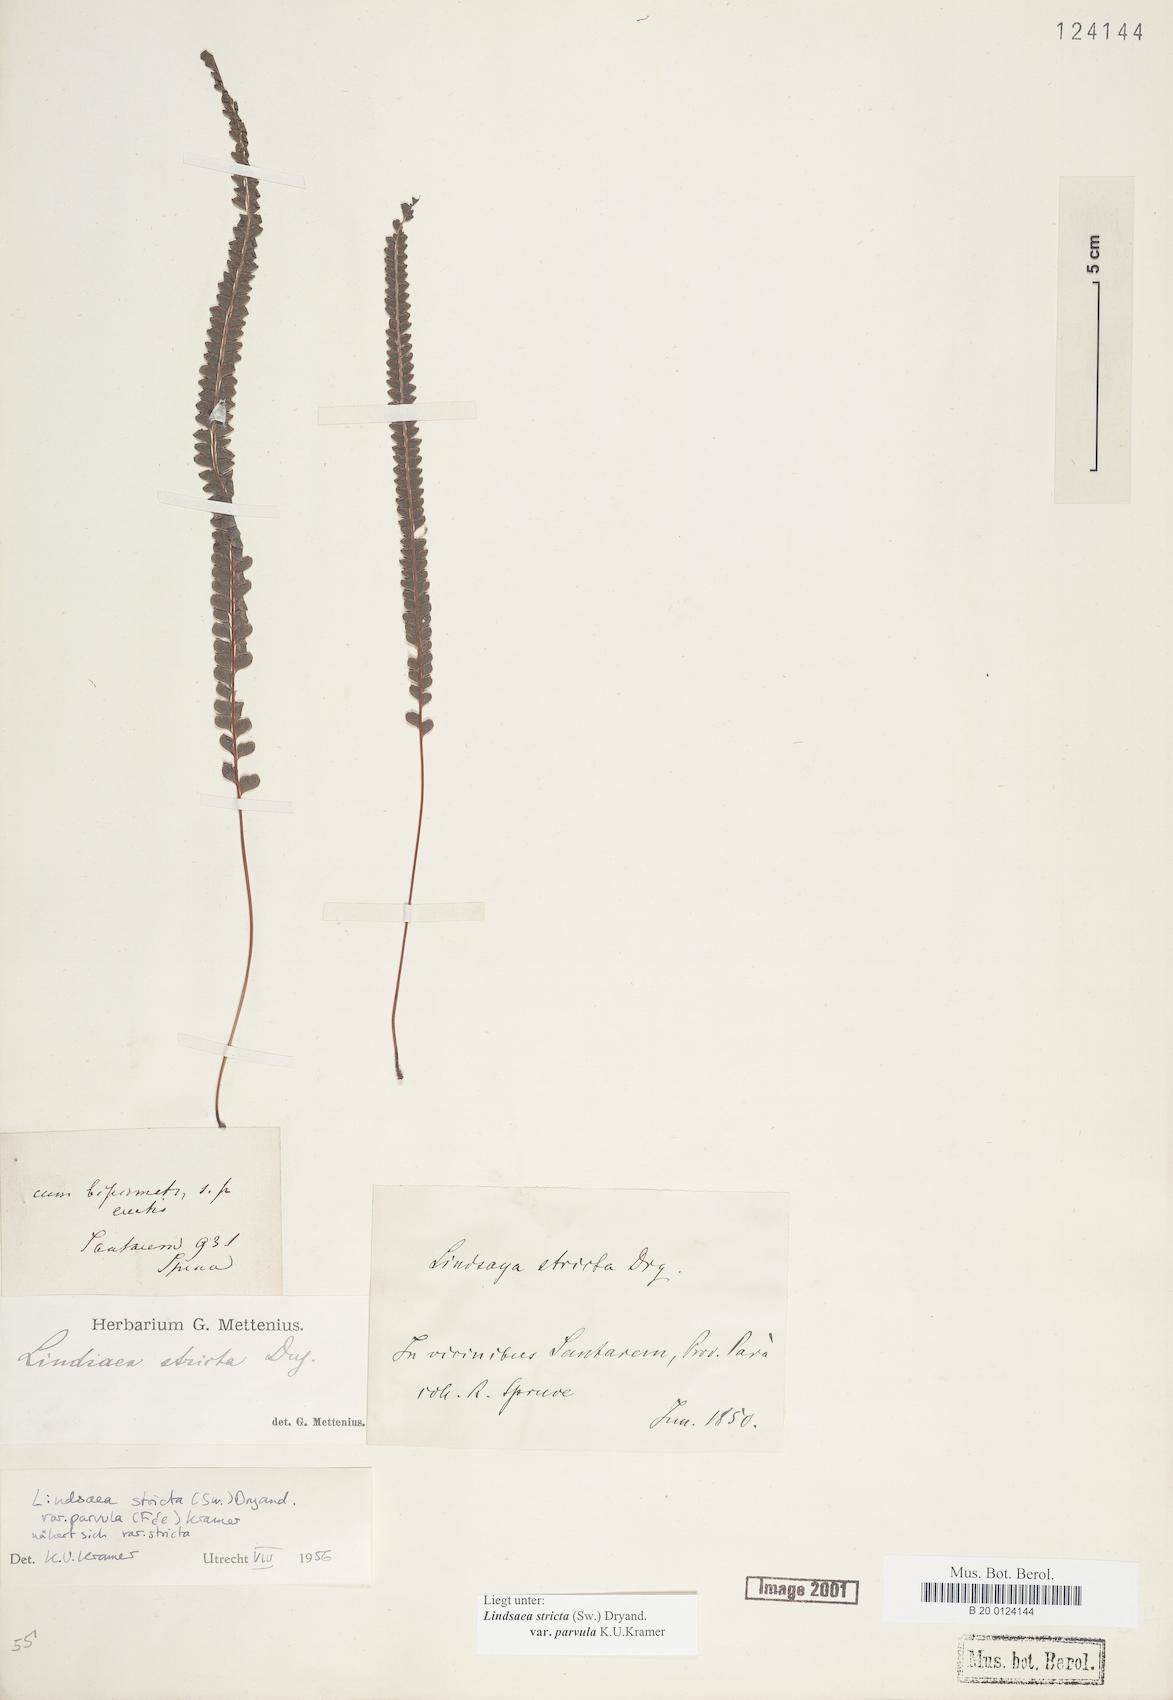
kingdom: Plantae
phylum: Tracheophyta
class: Polypodiopsida
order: Polypodiales
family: Lindsaeaceae
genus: Lindsaea
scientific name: Lindsaea stricta
